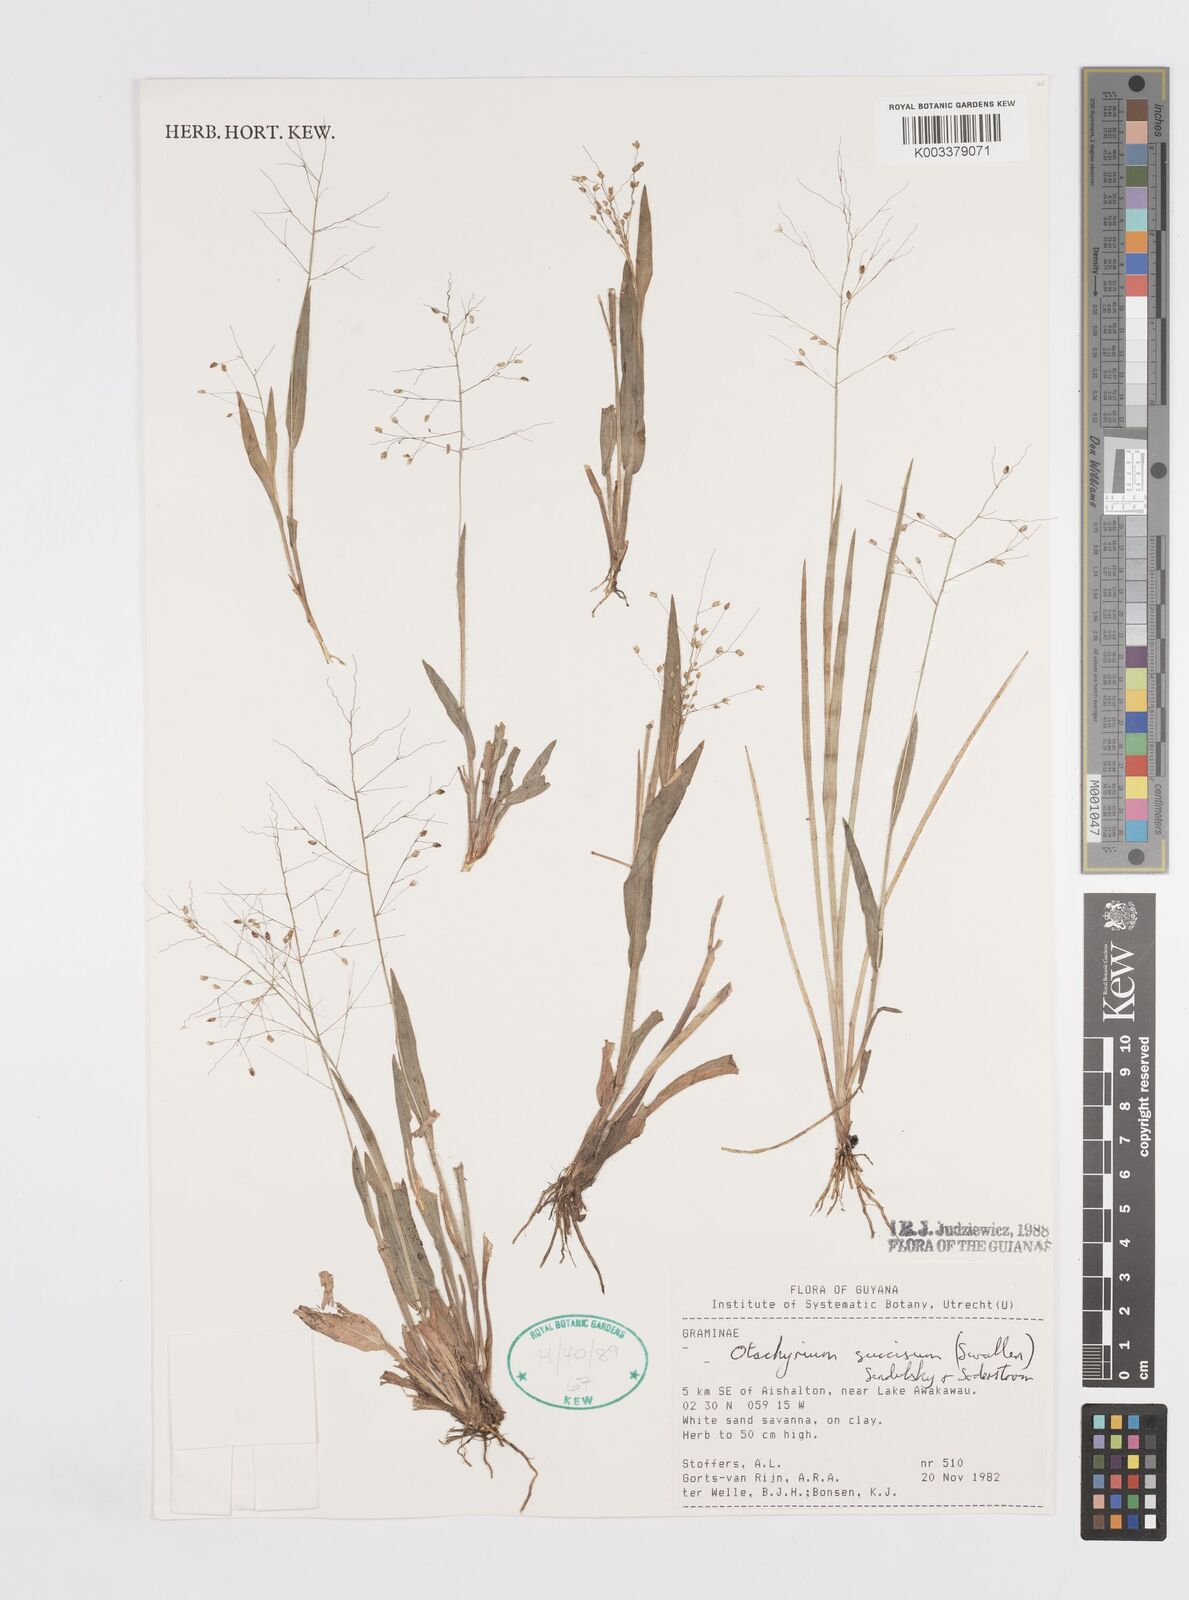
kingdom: Plantae
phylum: Tracheophyta
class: Liliopsida
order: Poales
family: Poaceae
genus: Otachyrium
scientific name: Otachyrium inaequale
